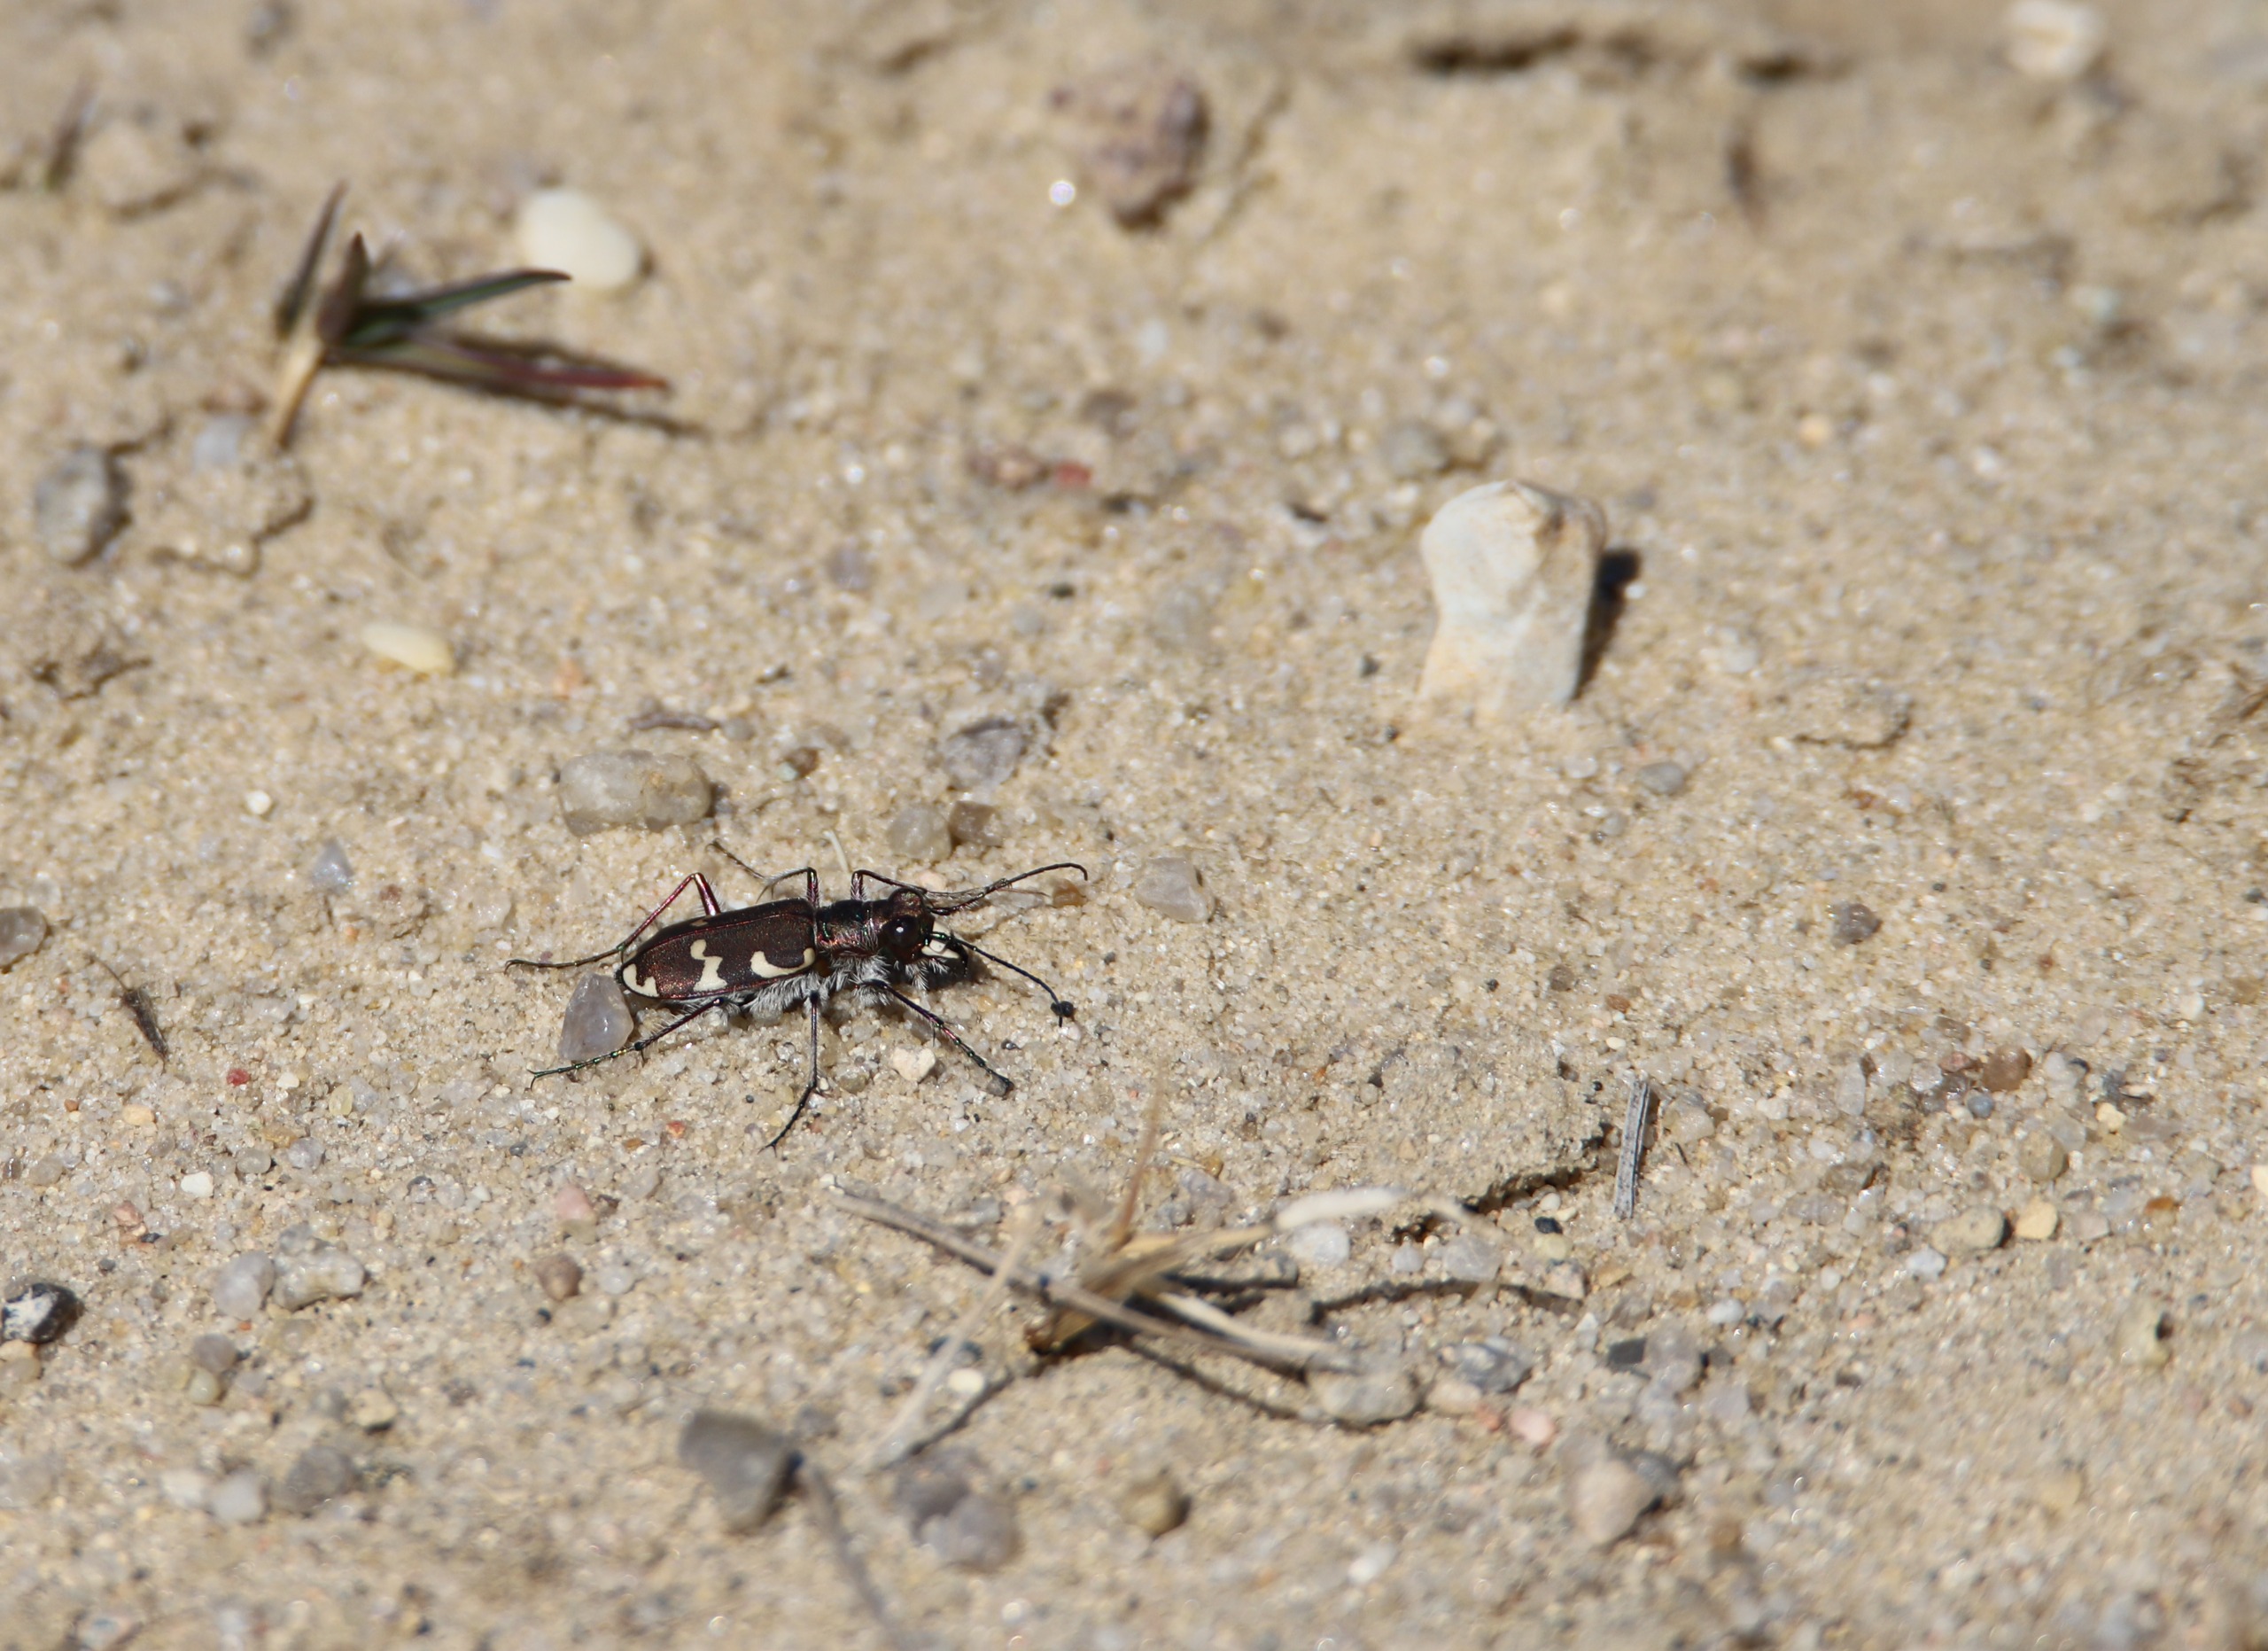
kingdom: Animalia
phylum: Arthropoda
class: Insecta
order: Coleoptera
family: Carabidae
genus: Cicindela
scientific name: Cicindela hybrida
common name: Brun sandspringer
